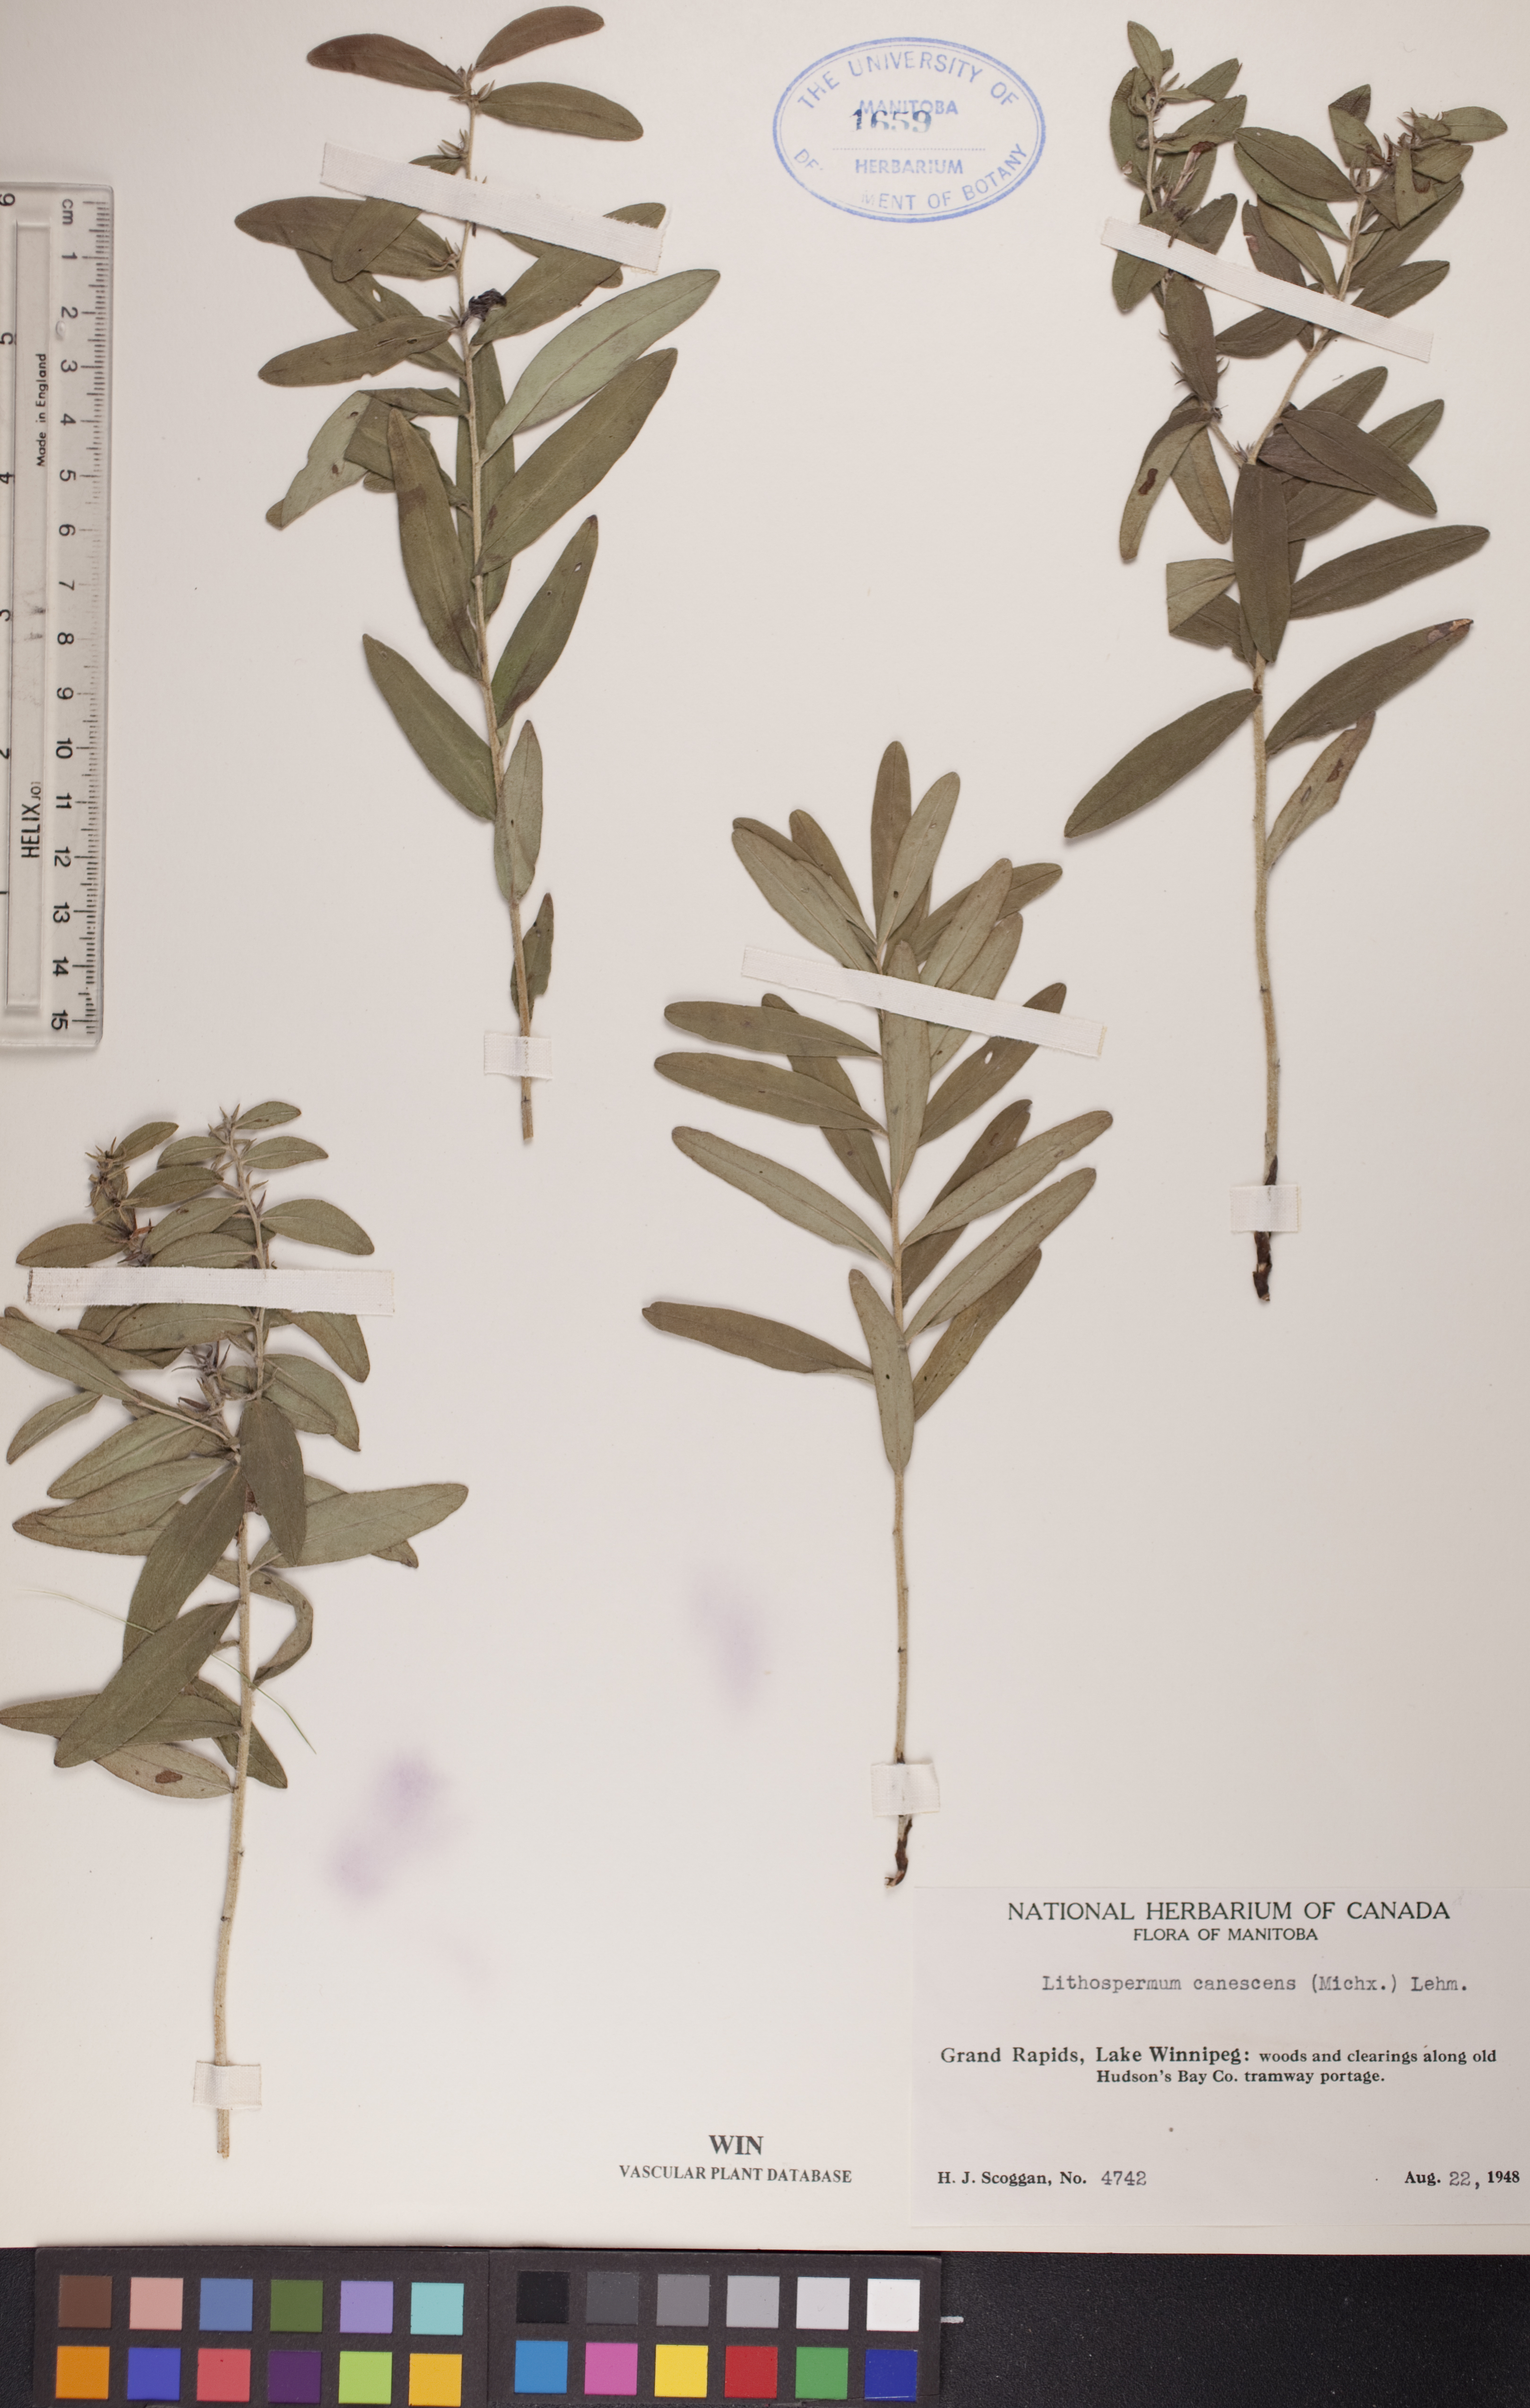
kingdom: Plantae
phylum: Tracheophyta
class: Magnoliopsida
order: Boraginales
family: Boraginaceae
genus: Lithospermum
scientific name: Lithospermum canescens
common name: Hoary puccoon
